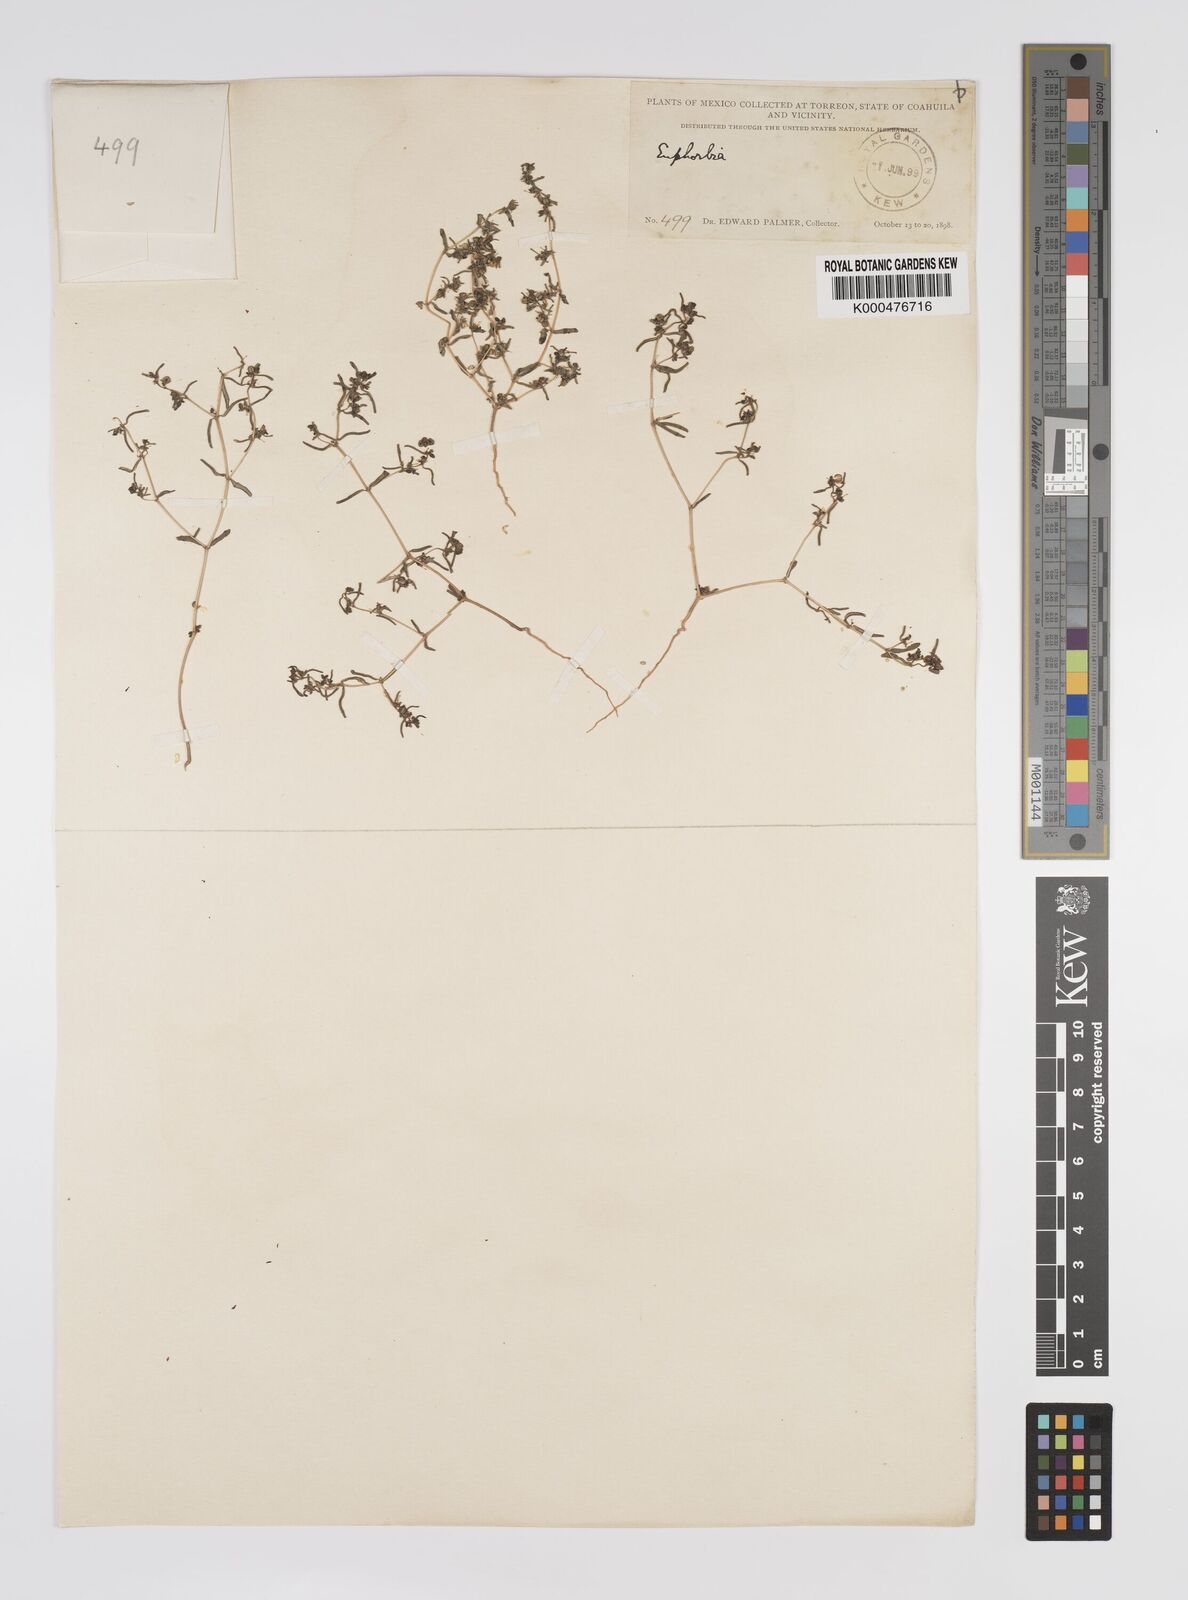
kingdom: Plantae
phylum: Tracheophyta
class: Magnoliopsida
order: Malpighiales
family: Euphorbiaceae
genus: Euphorbia
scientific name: Euphorbia
